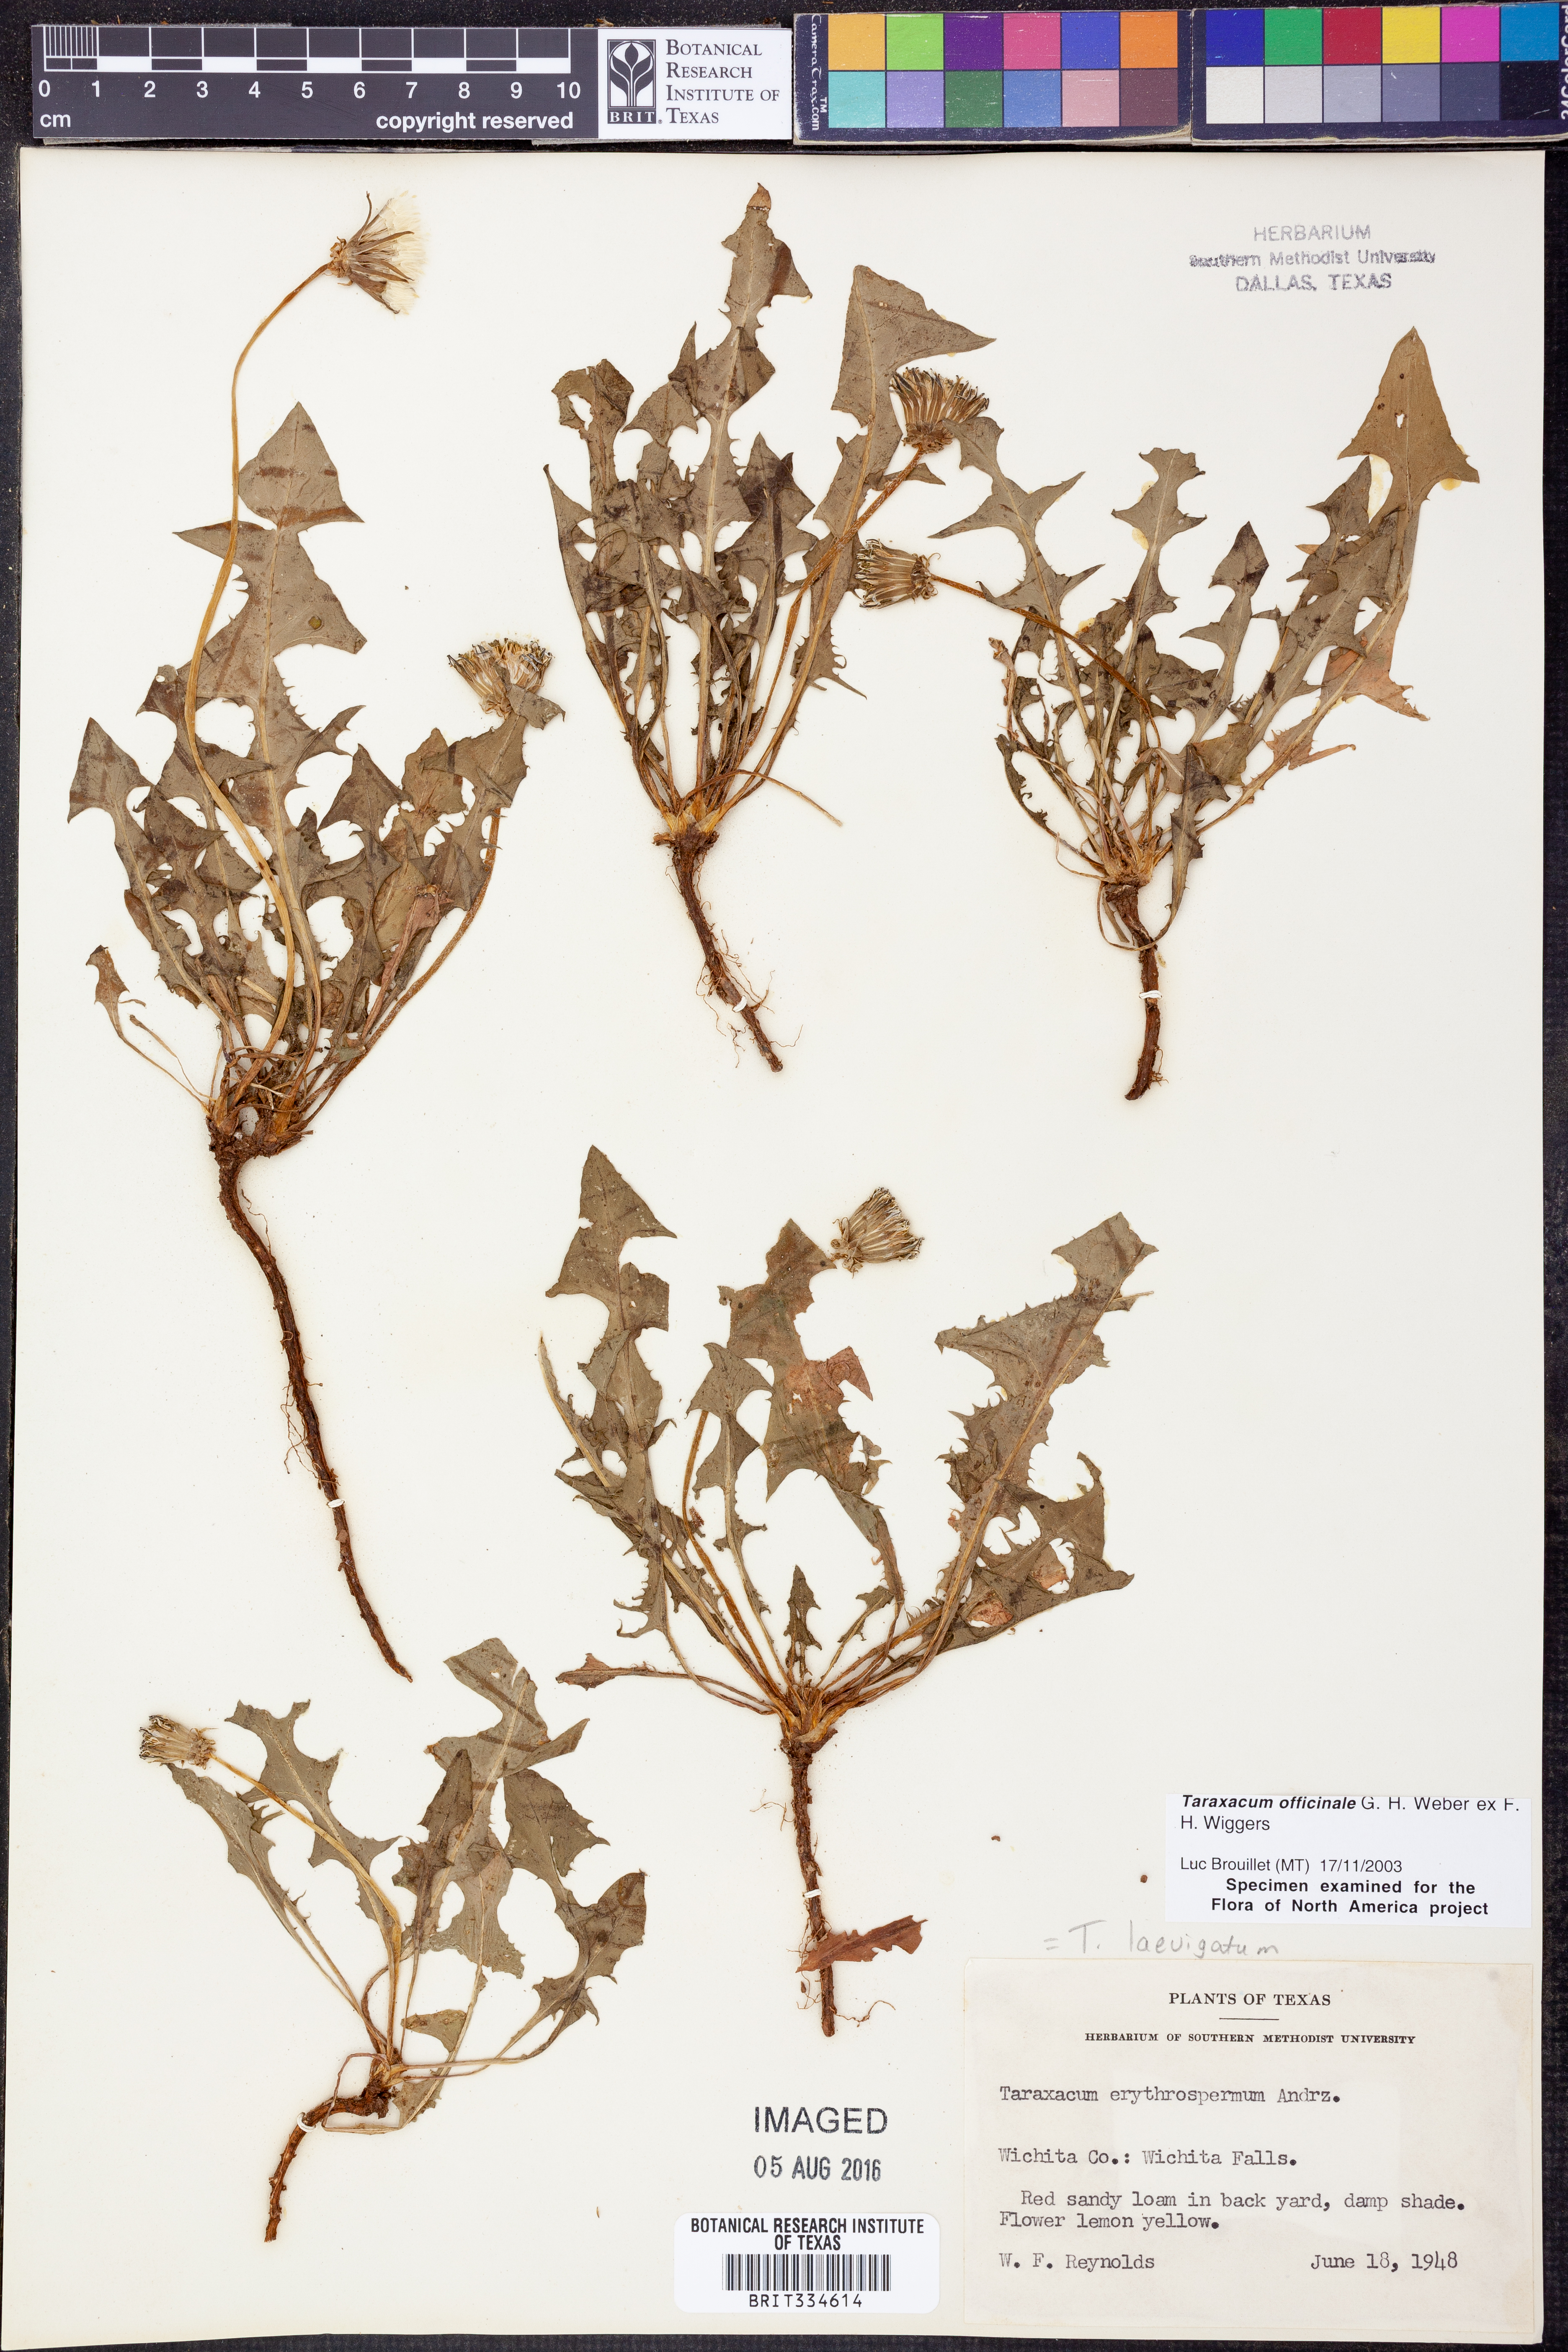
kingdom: Plantae
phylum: Tracheophyta
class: Magnoliopsida
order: Asterales
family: Asteraceae
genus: Taraxacum
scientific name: Taraxacum officinale
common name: Common dandelion
